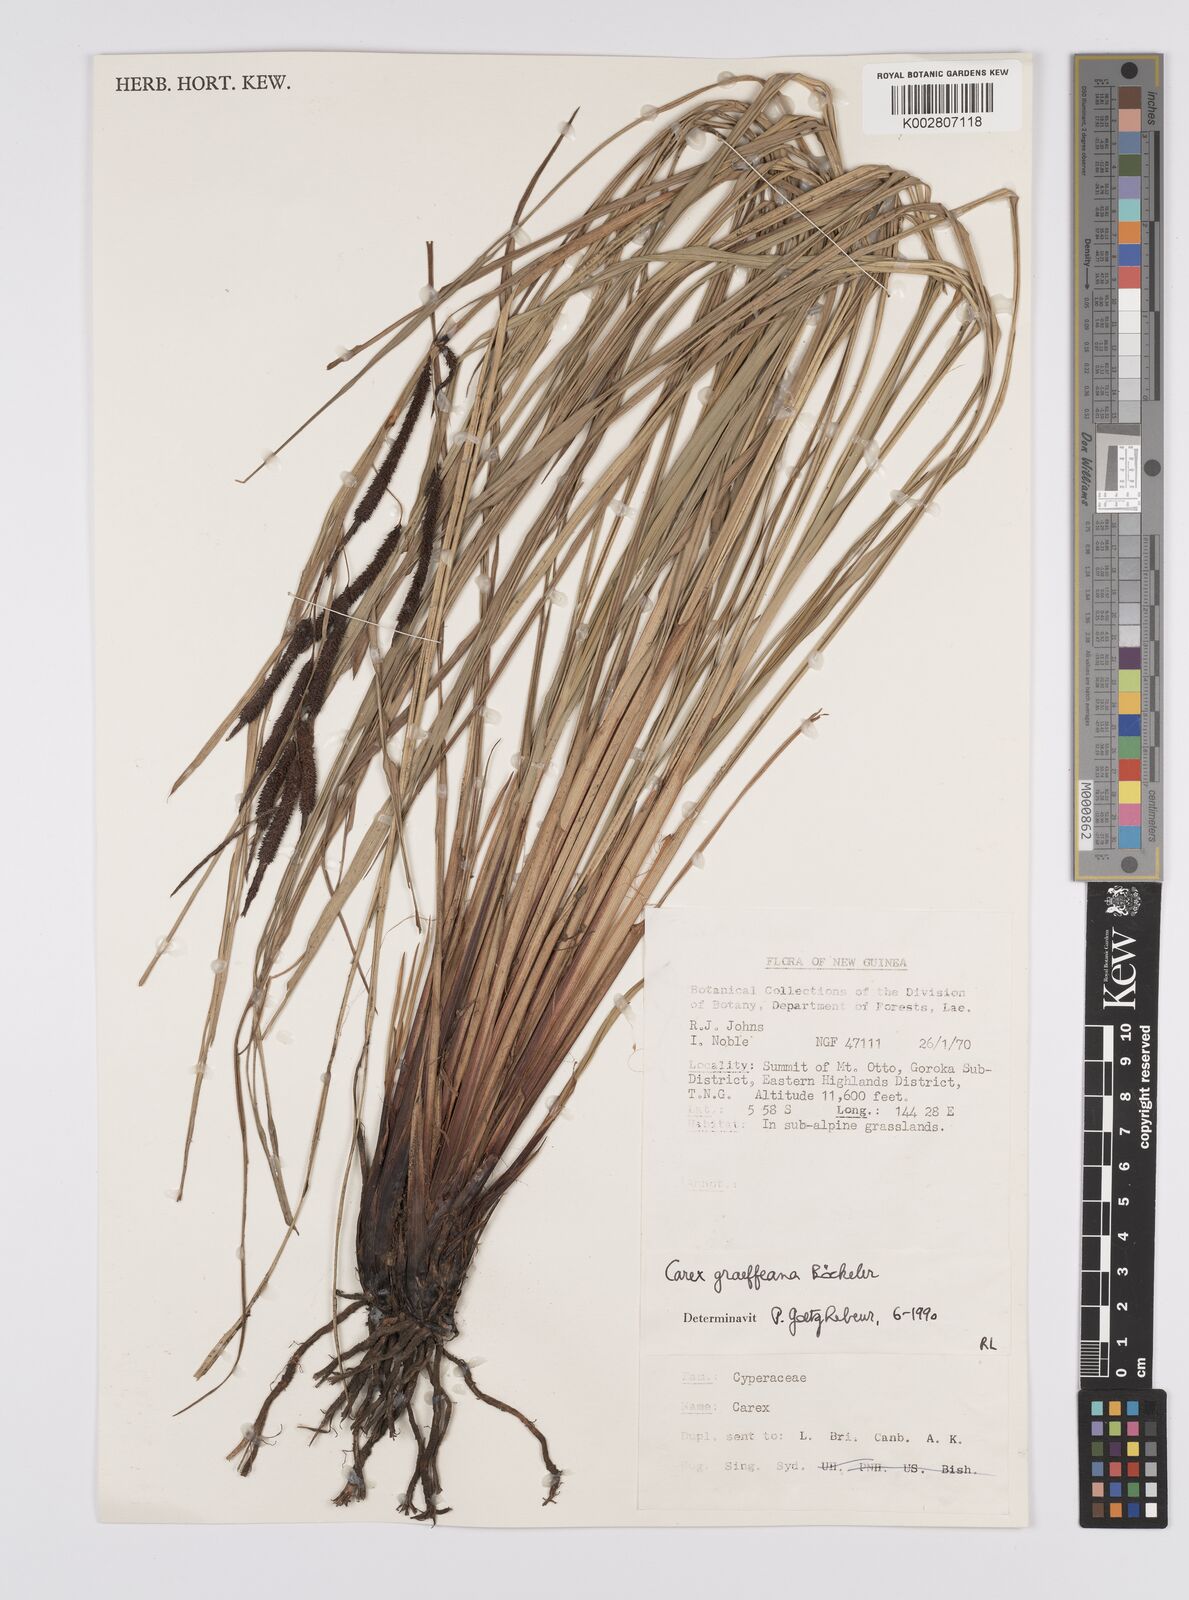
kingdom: Plantae
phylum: Tracheophyta
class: Liliopsida
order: Poales
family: Cyperaceae
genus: Carex
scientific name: Carex graeffeana
